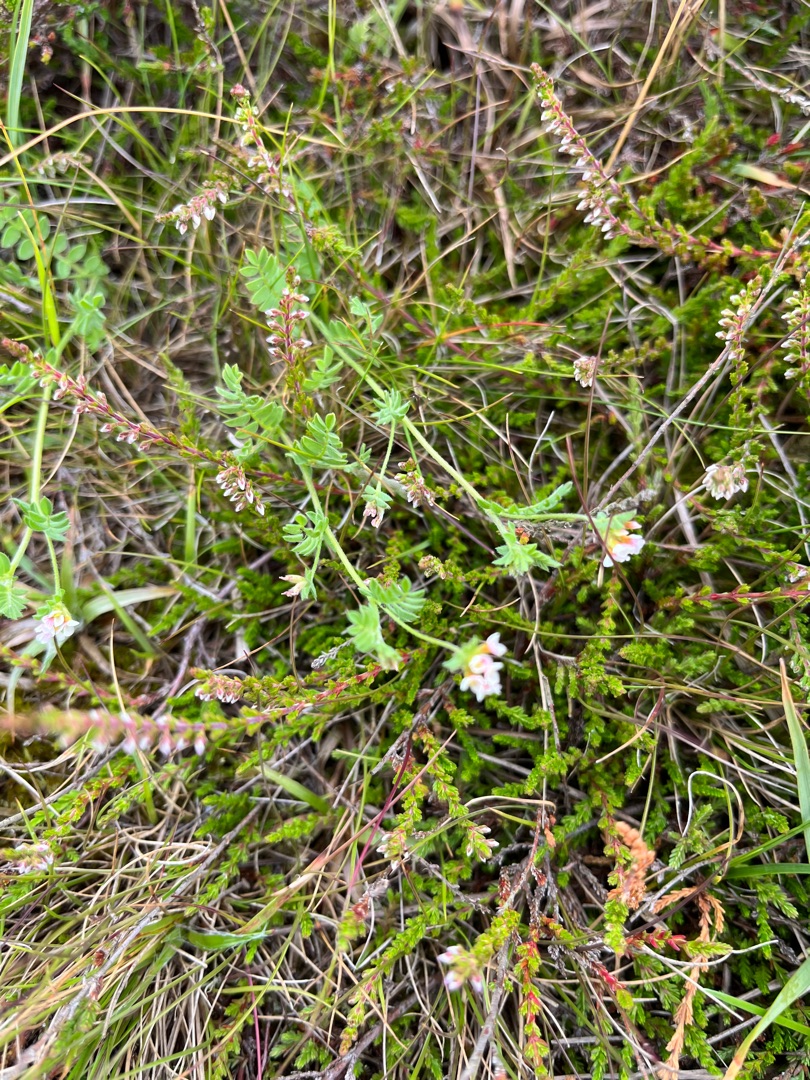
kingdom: Plantae
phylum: Tracheophyta
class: Magnoliopsida
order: Fabales
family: Fabaceae
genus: Ornithopus
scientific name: Ornithopus perpusillus
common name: Liden fugleklo
